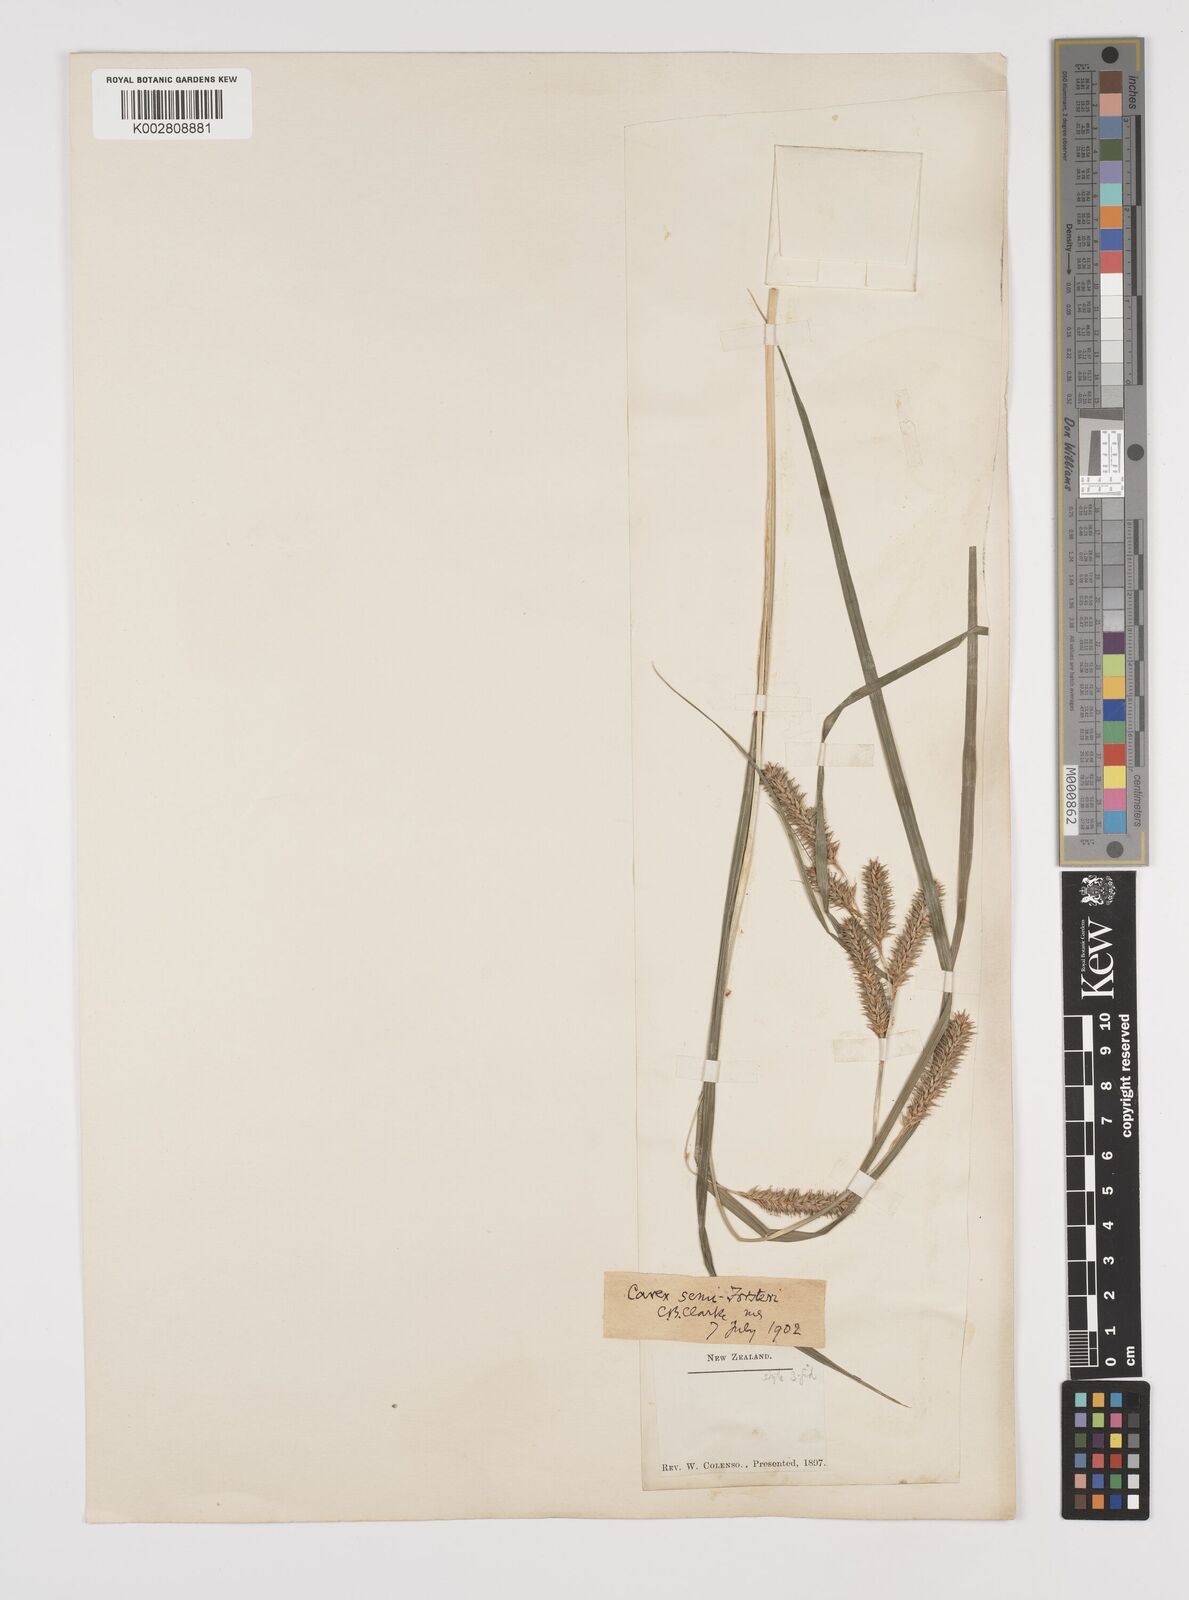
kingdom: Plantae
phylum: Tracheophyta
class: Liliopsida
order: Poales
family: Cyperaceae
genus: Carex
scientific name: Carex forsteri
